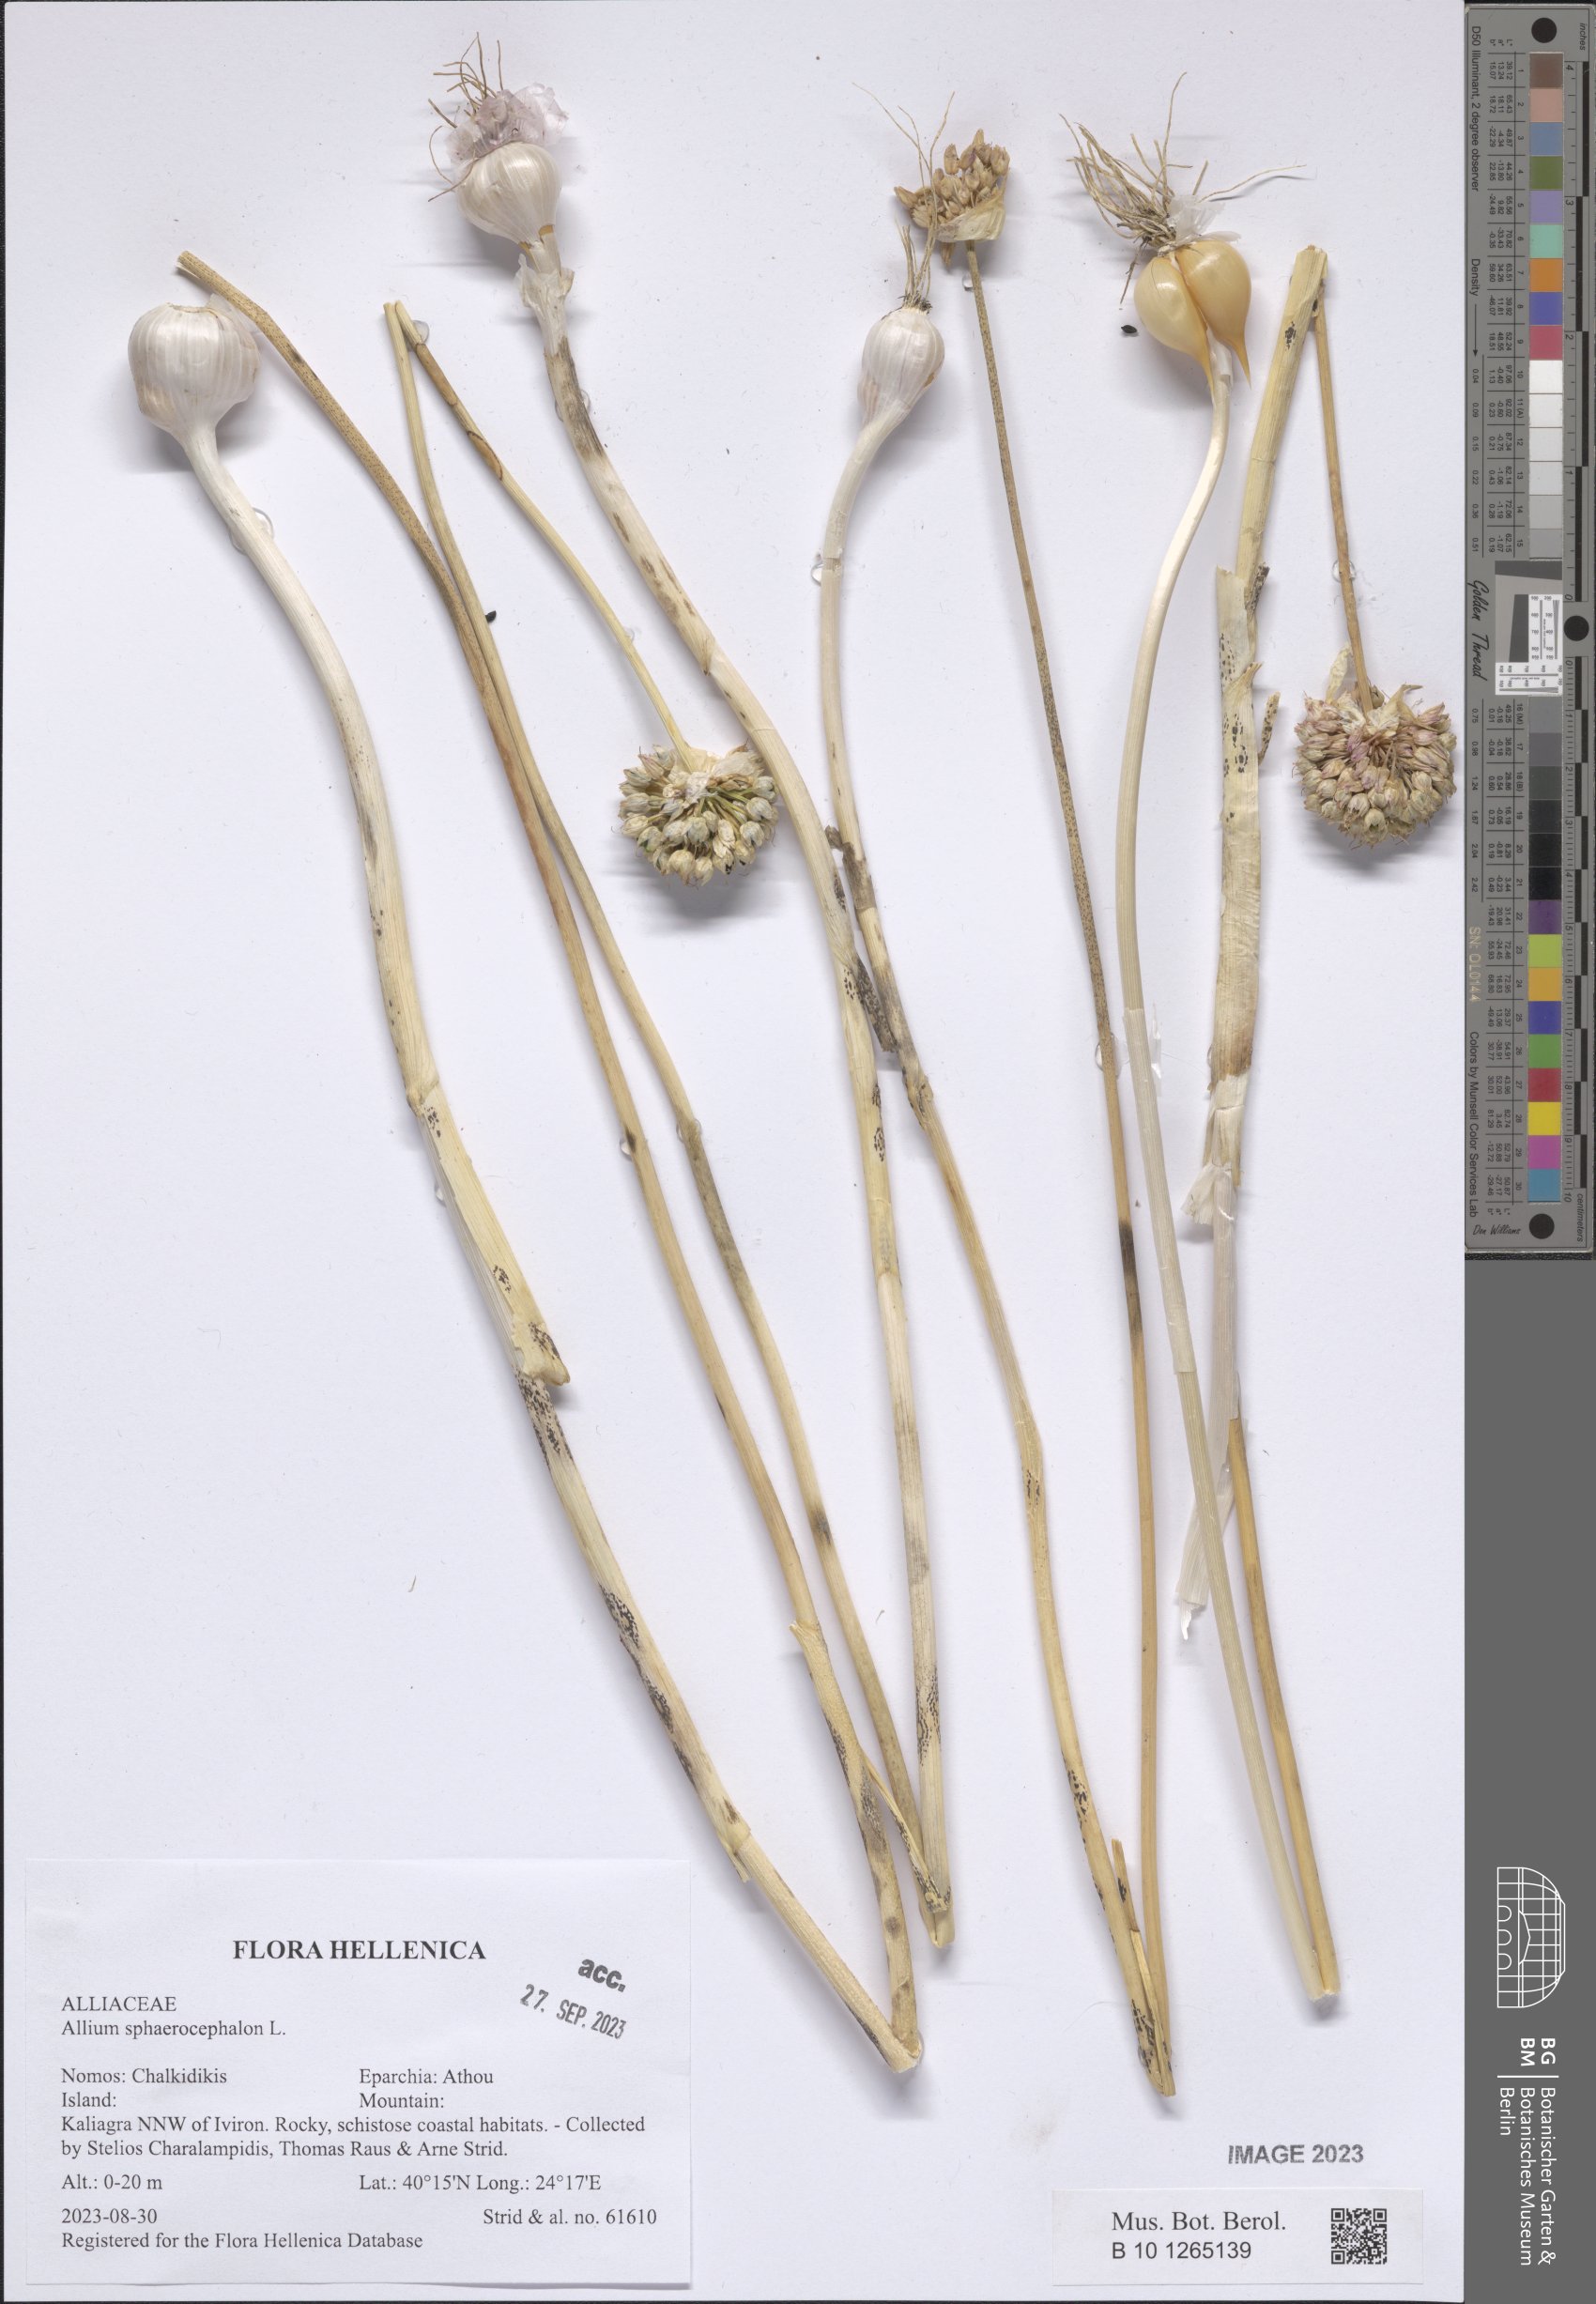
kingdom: Plantae
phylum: Tracheophyta
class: Liliopsida
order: Asparagales
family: Amaryllidaceae
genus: Allium
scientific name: Allium sphaerocephalon
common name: Round-headed leek
